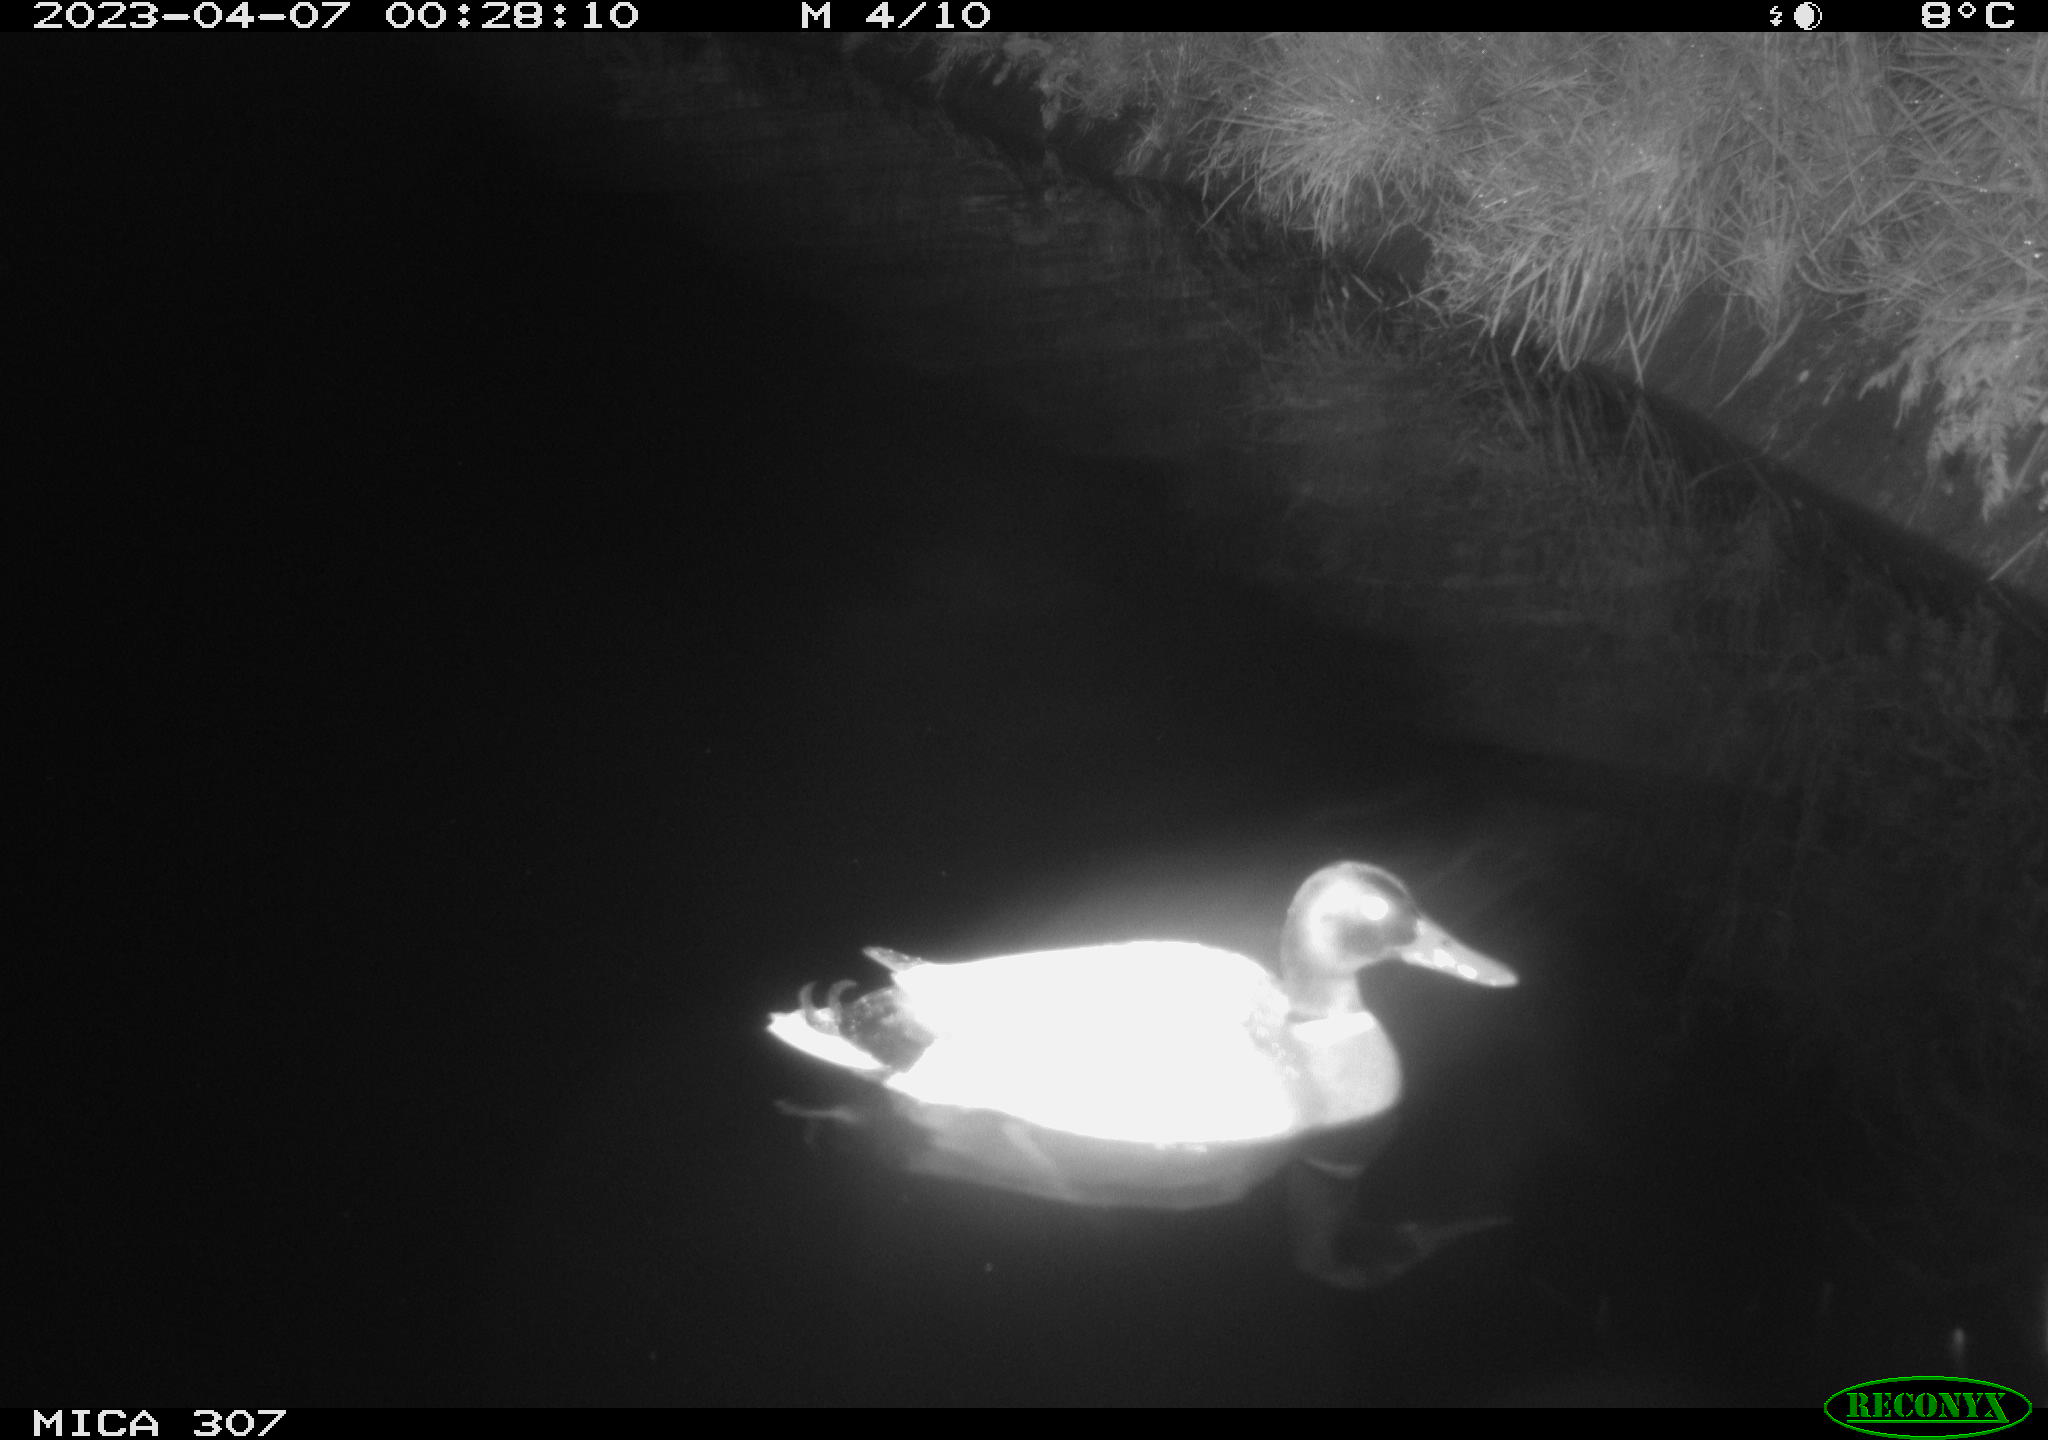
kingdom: Animalia
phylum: Chordata
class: Aves
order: Anseriformes
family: Anatidae
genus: Anas
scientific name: Anas
